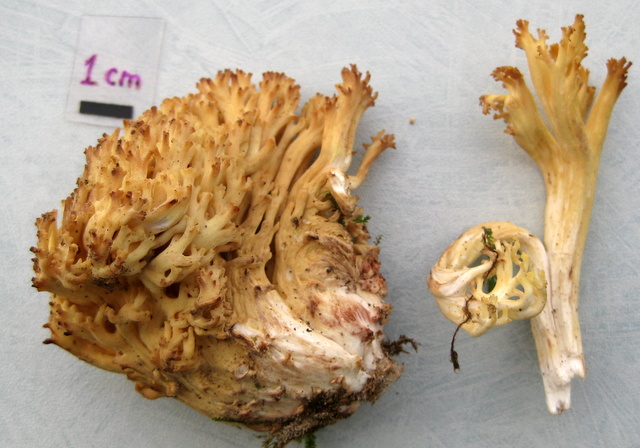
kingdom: Fungi
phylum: Basidiomycota
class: Agaricomycetes
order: Gomphales
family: Gomphaceae
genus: Ramaria
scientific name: Ramaria botrytis
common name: drue-koralsvamp
